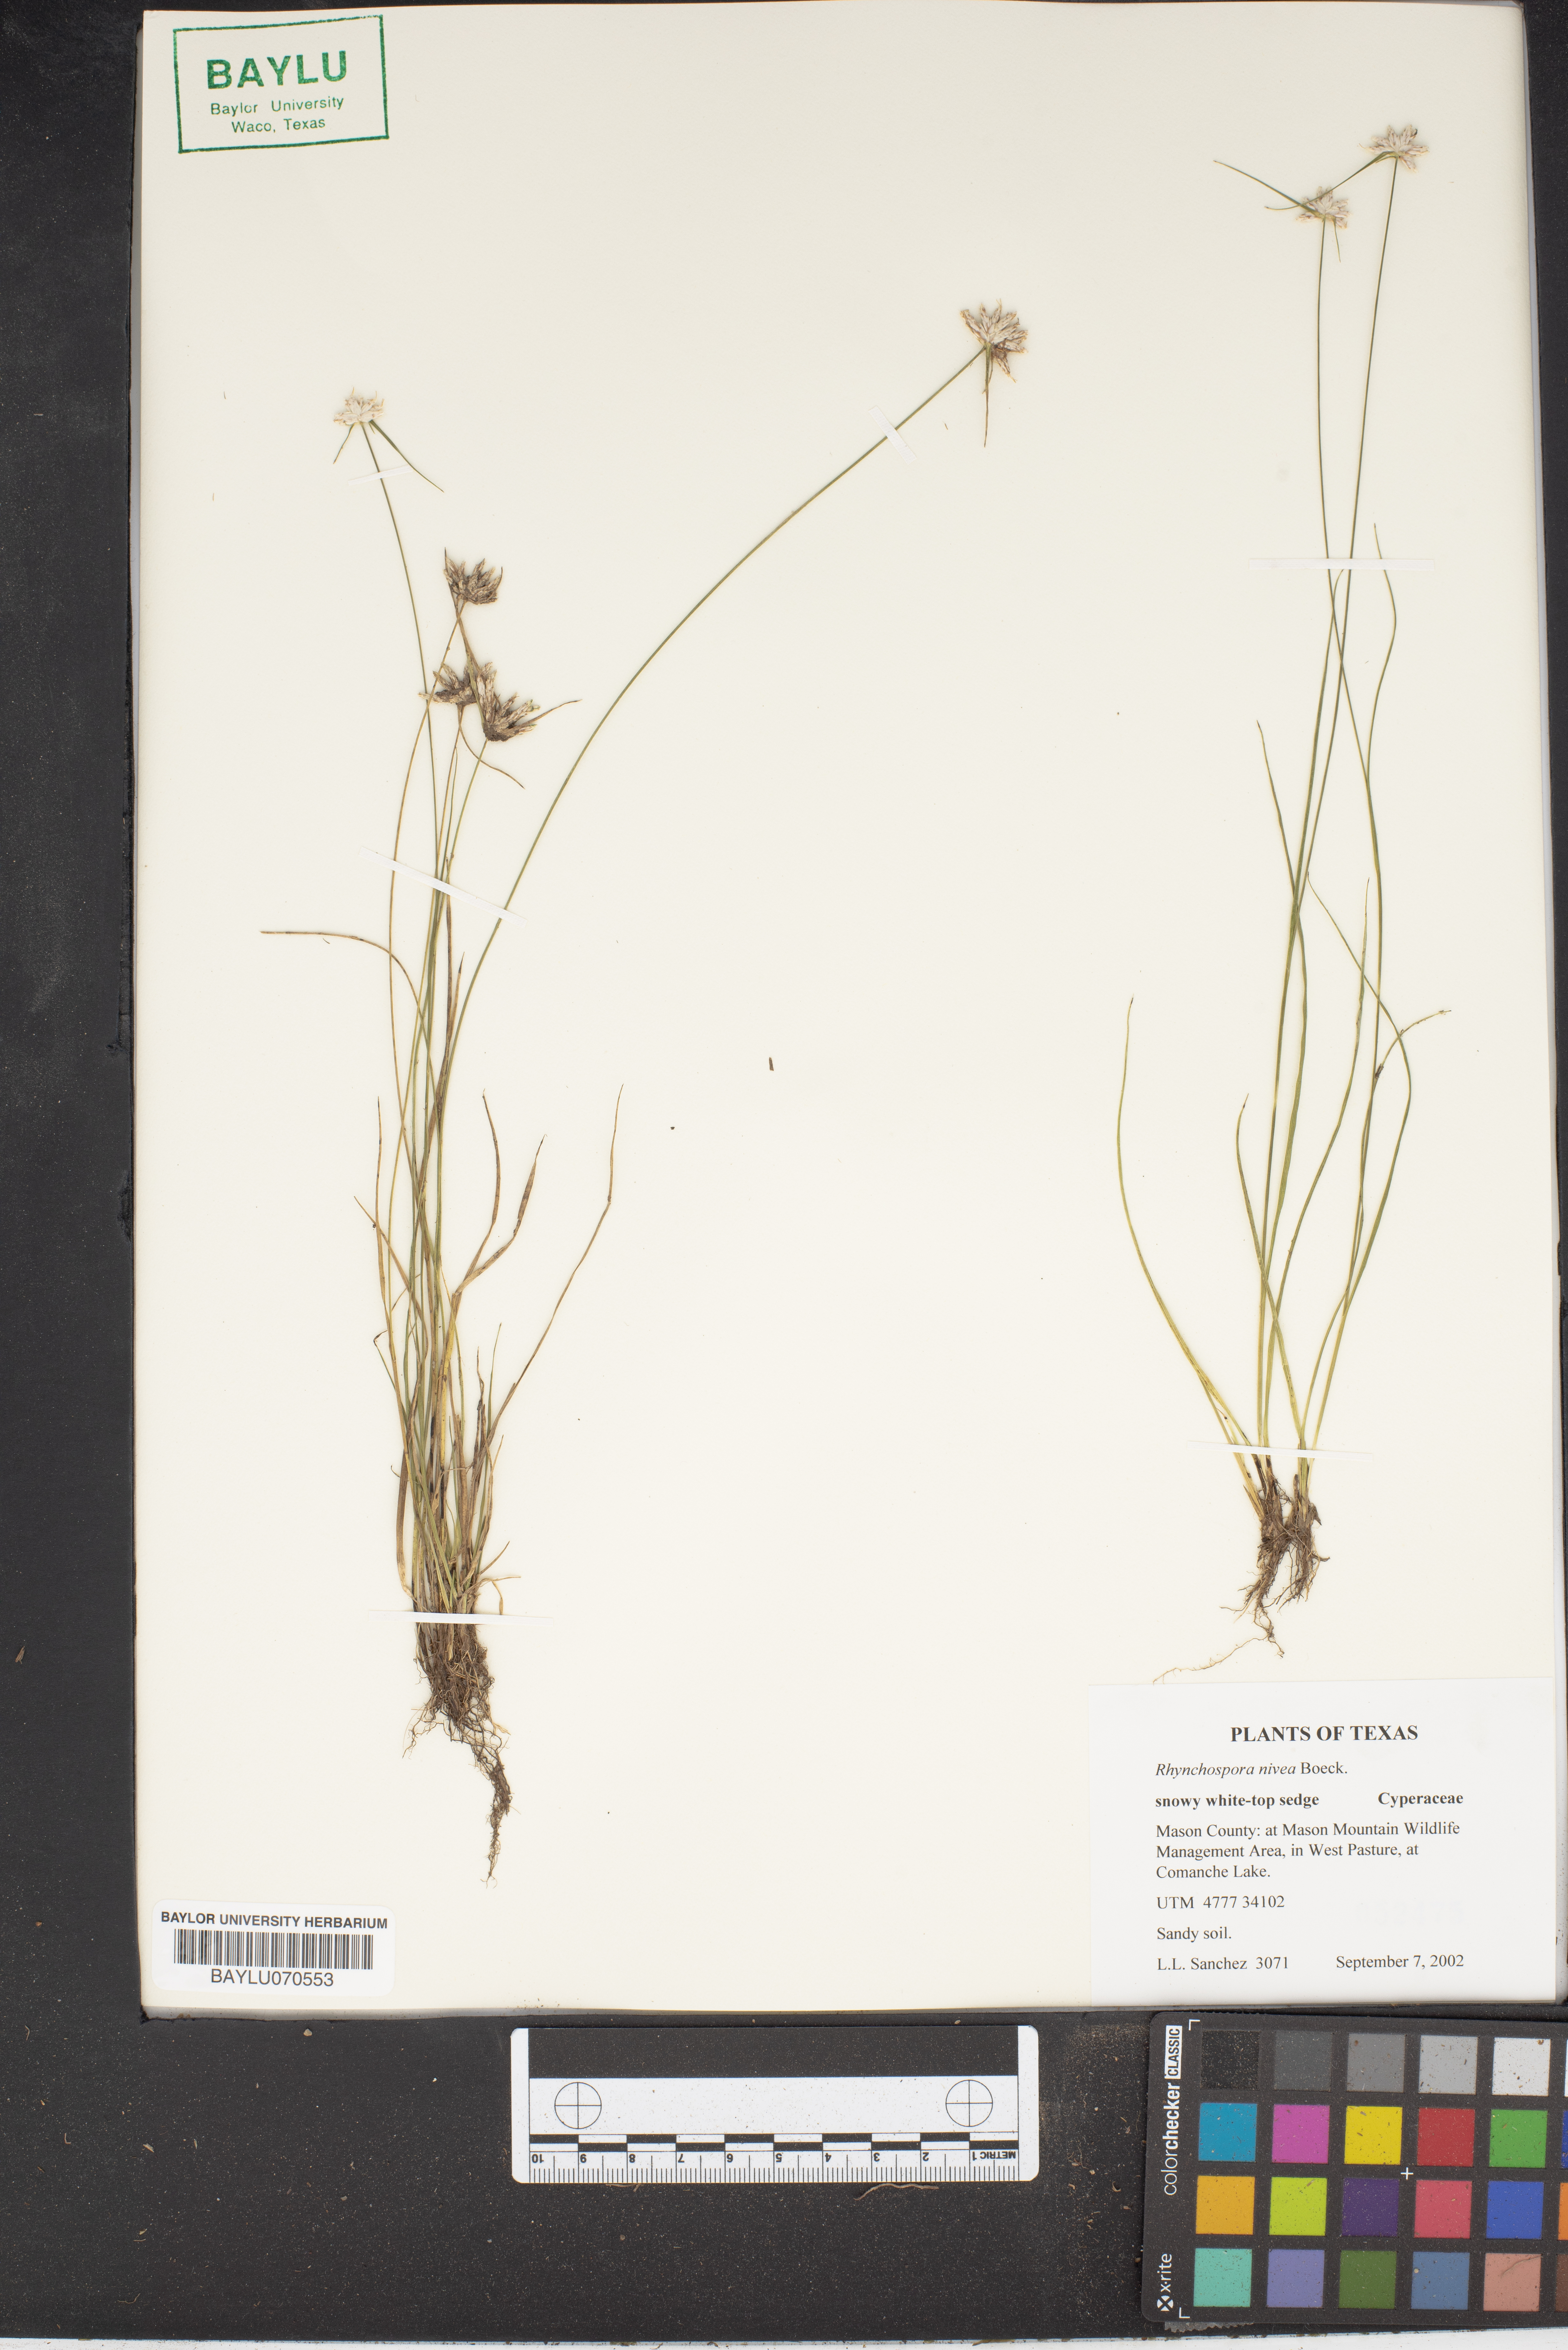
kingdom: Plantae
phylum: Tracheophyta
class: Liliopsida
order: Poales
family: Cyperaceae
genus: Rhynchospora
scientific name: Rhynchospora nivea
